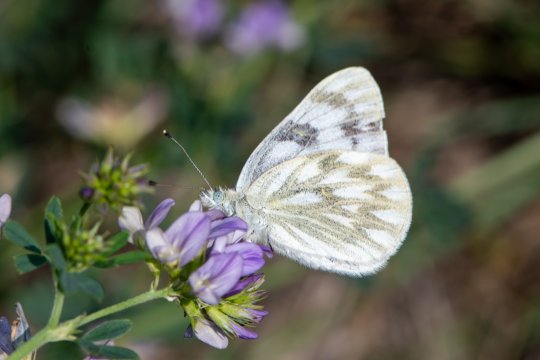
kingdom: Animalia
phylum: Arthropoda
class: Insecta
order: Lepidoptera
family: Pieridae
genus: Pontia
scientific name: Pontia
